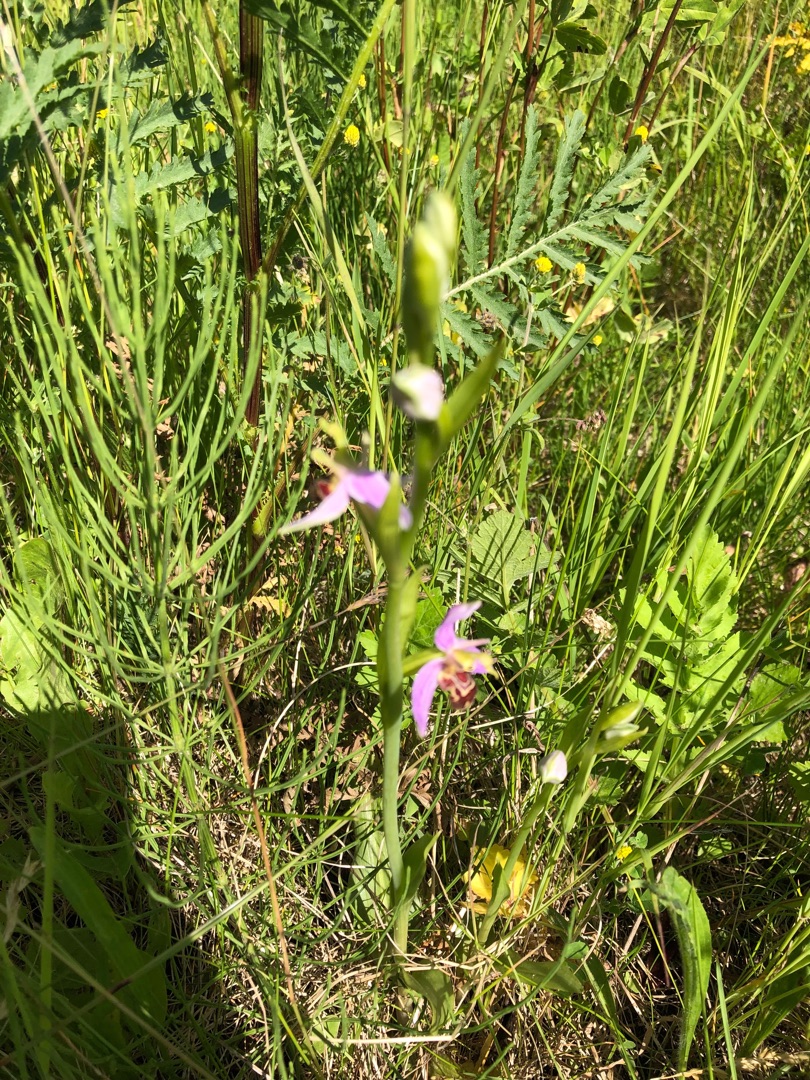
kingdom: Plantae
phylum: Tracheophyta
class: Liliopsida
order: Asparagales
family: Orchidaceae
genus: Ophrys
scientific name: Ophrys apifera
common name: Biblomst
